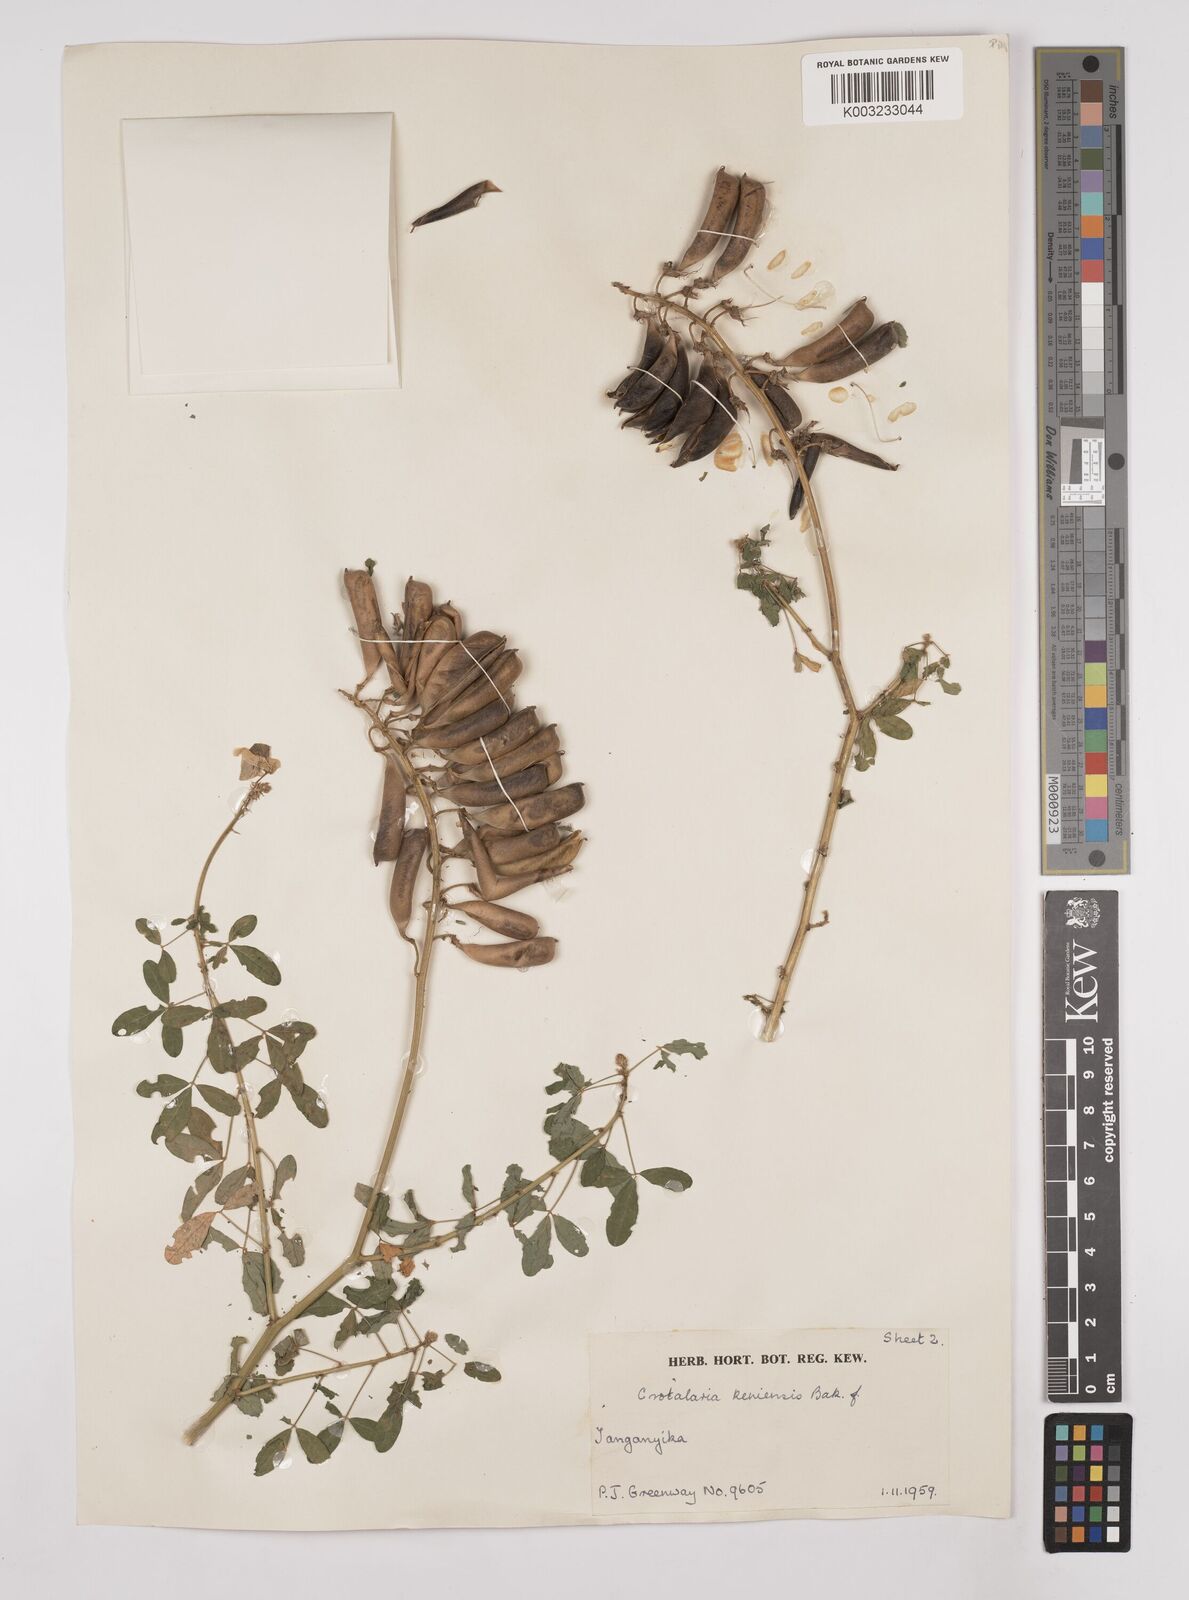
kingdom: Plantae
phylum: Tracheophyta
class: Magnoliopsida
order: Fabales
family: Fabaceae
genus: Crotalaria
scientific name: Crotalaria keniensis
